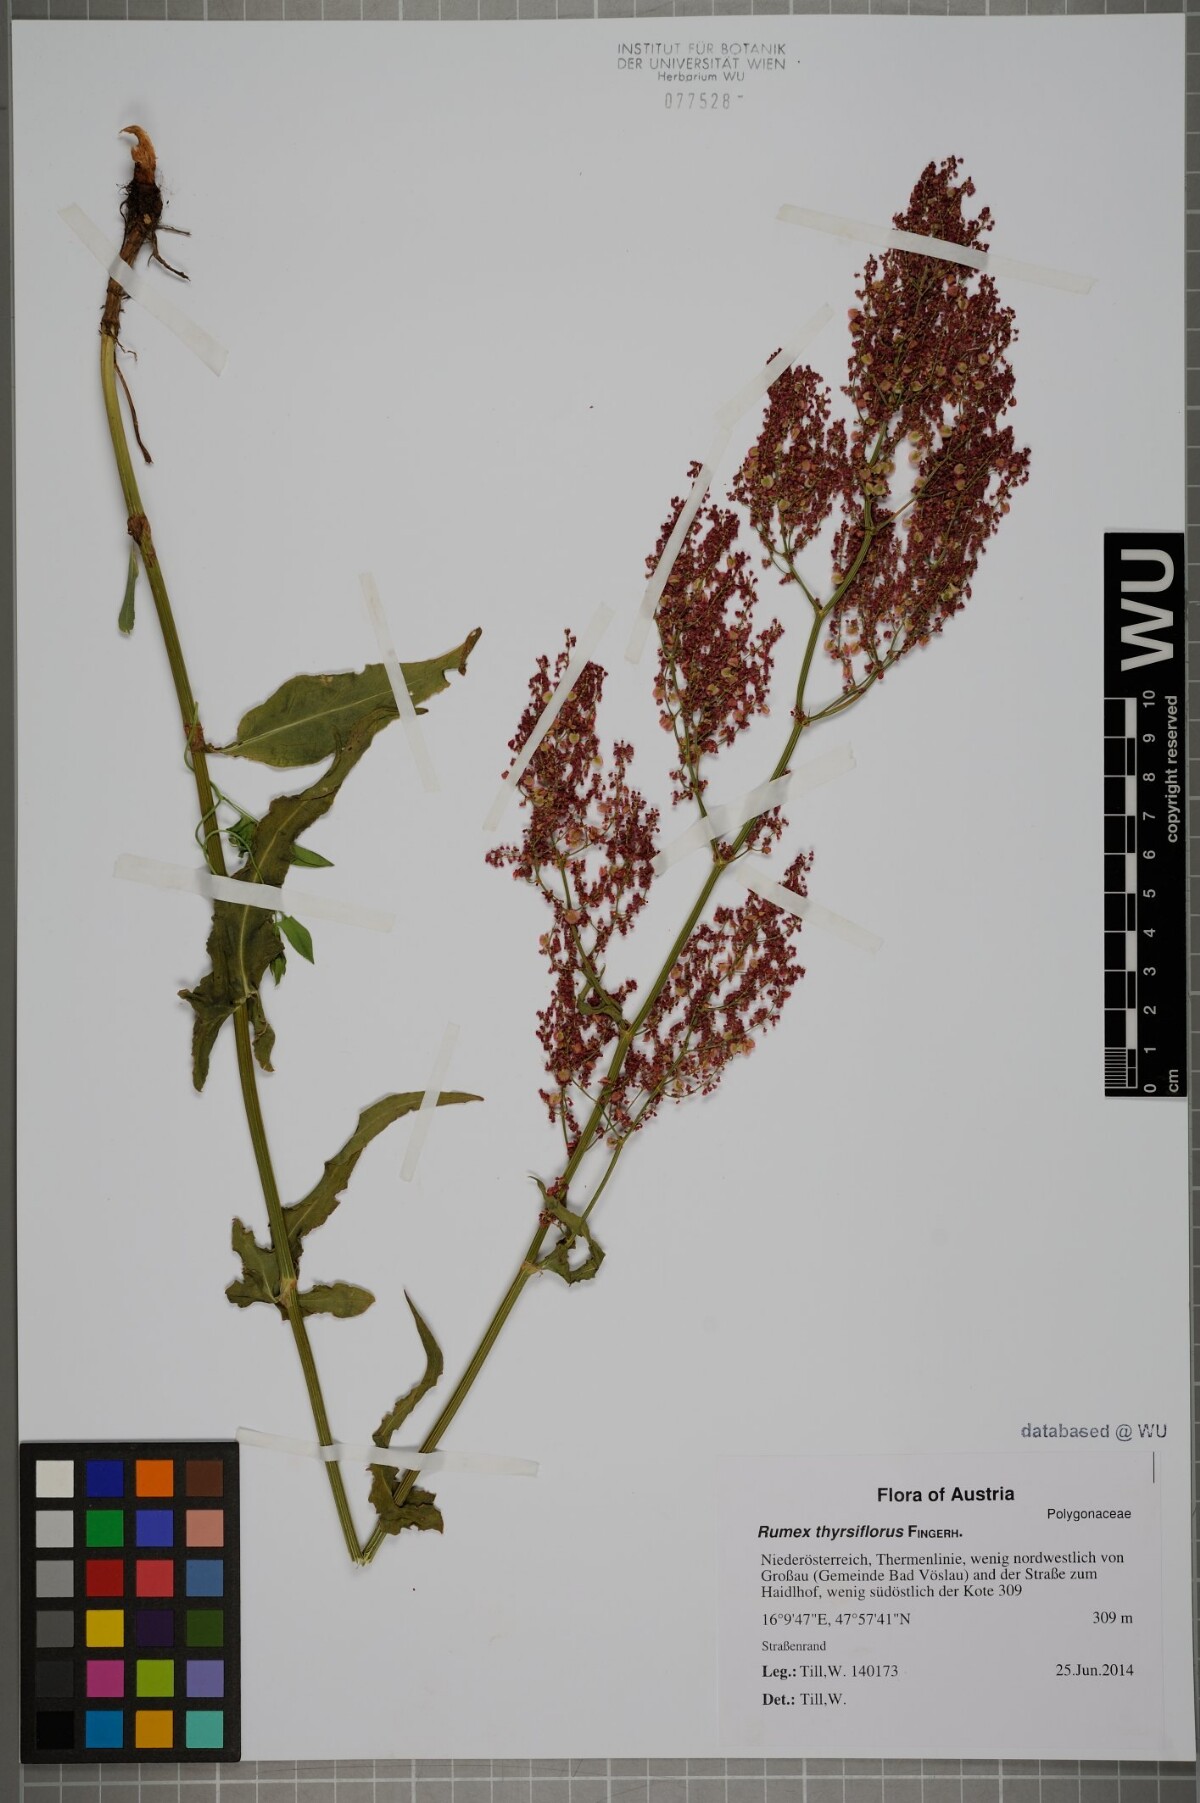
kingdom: Plantae
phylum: Tracheophyta
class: Magnoliopsida
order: Caryophyllales
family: Polygonaceae
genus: Rumex
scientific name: Rumex thyrsiflorus
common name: Garden sorrel
